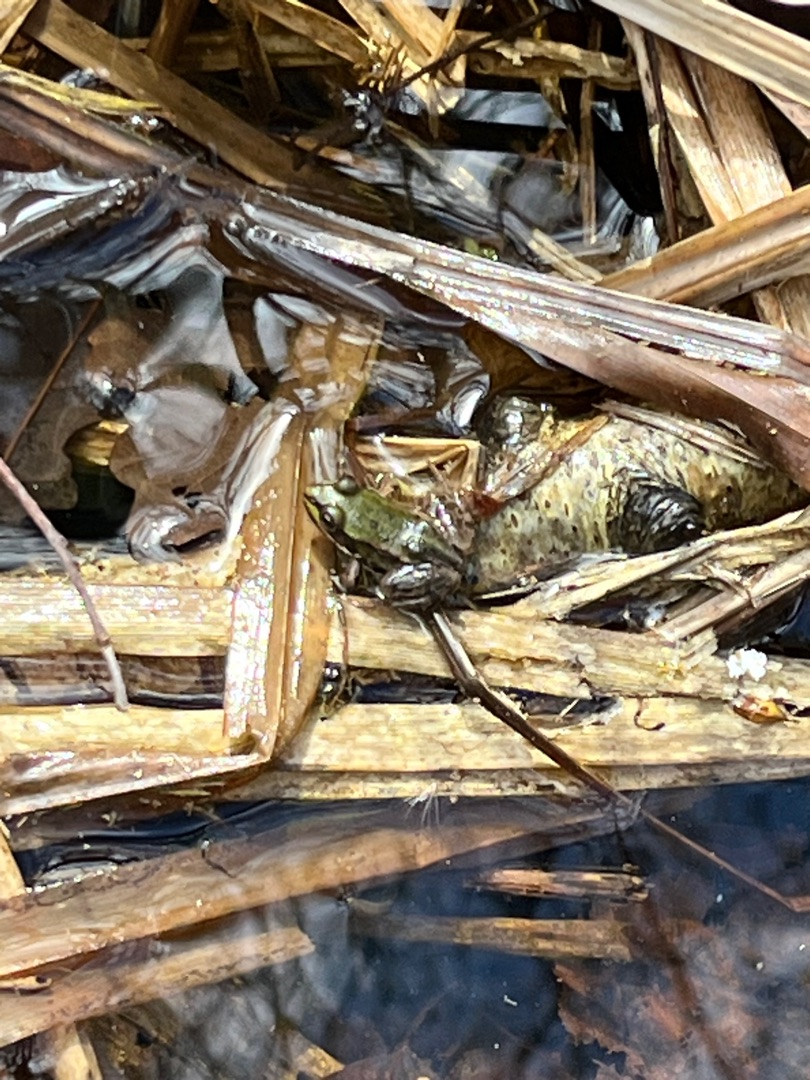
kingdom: Animalia
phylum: Chordata
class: Amphibia
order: Anura
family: Ranidae
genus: Pelophylax
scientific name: Pelophylax lessonae
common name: Grøn frø
